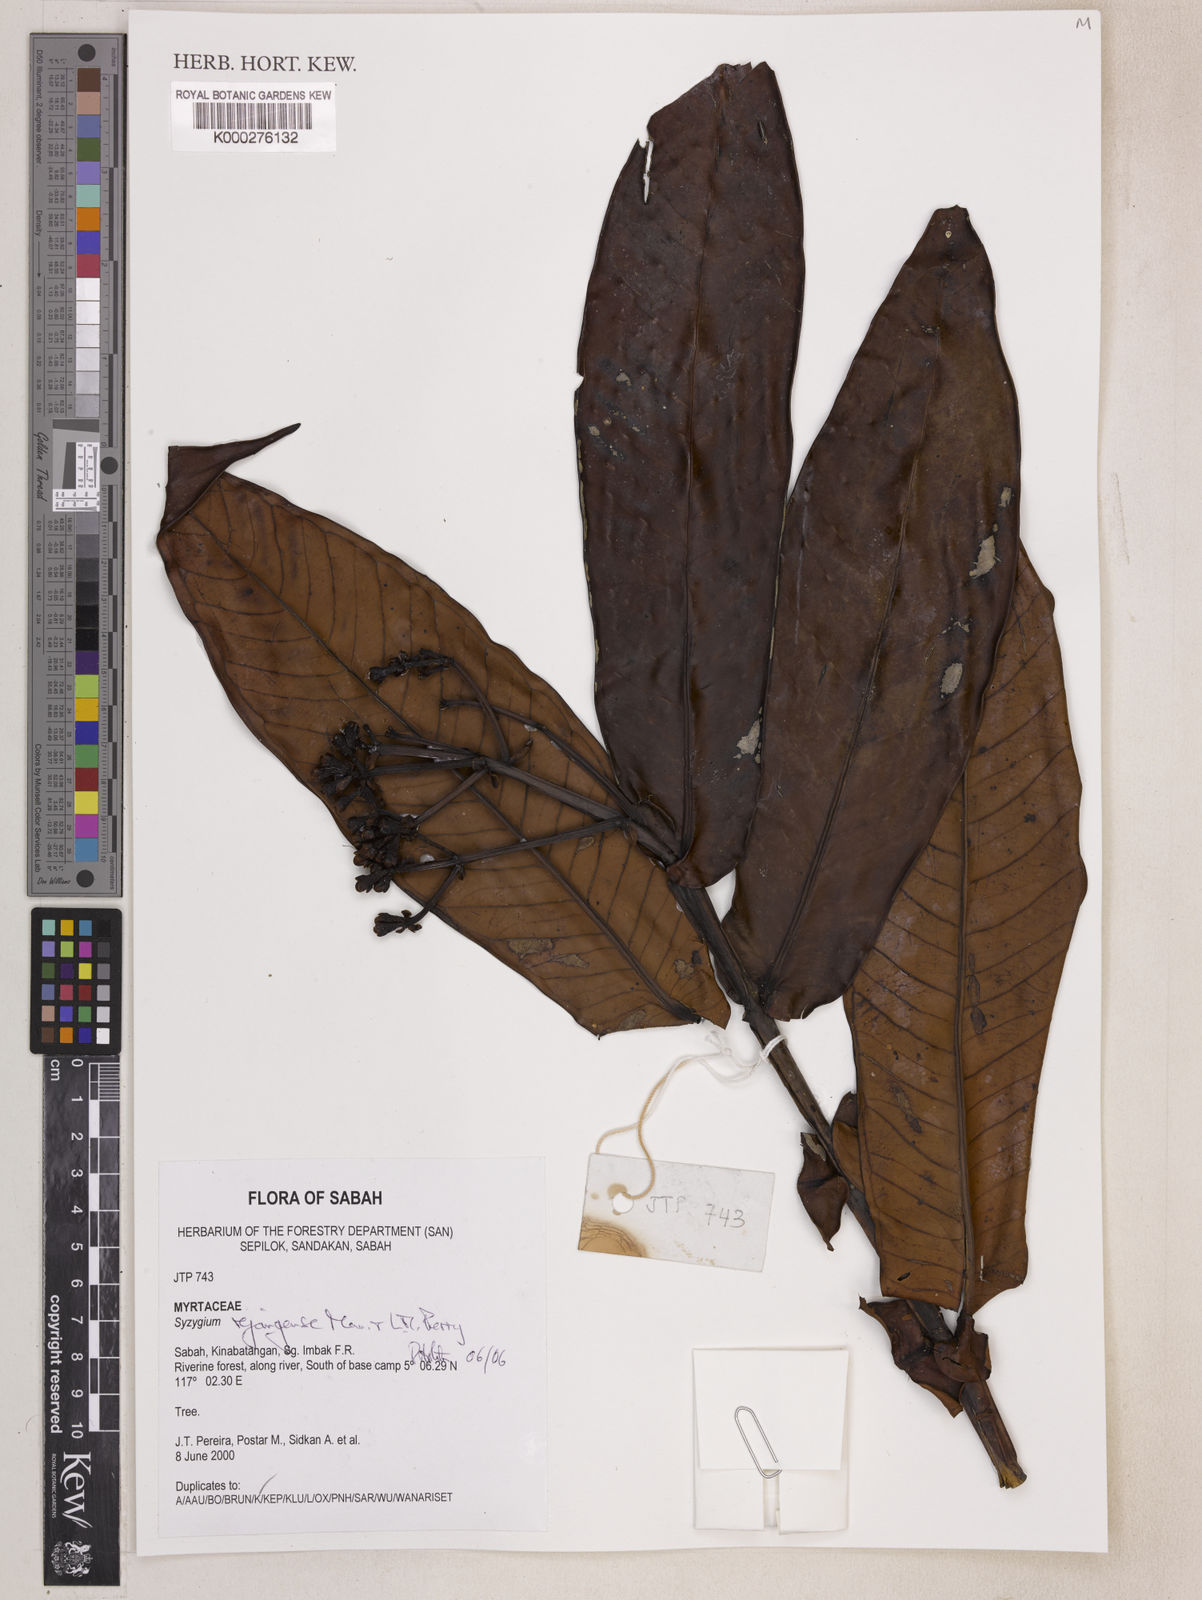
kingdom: Plantae
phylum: Tracheophyta
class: Magnoliopsida
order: Myrtales
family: Myrtaceae
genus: Syzygium
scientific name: Syzygium rejangense
